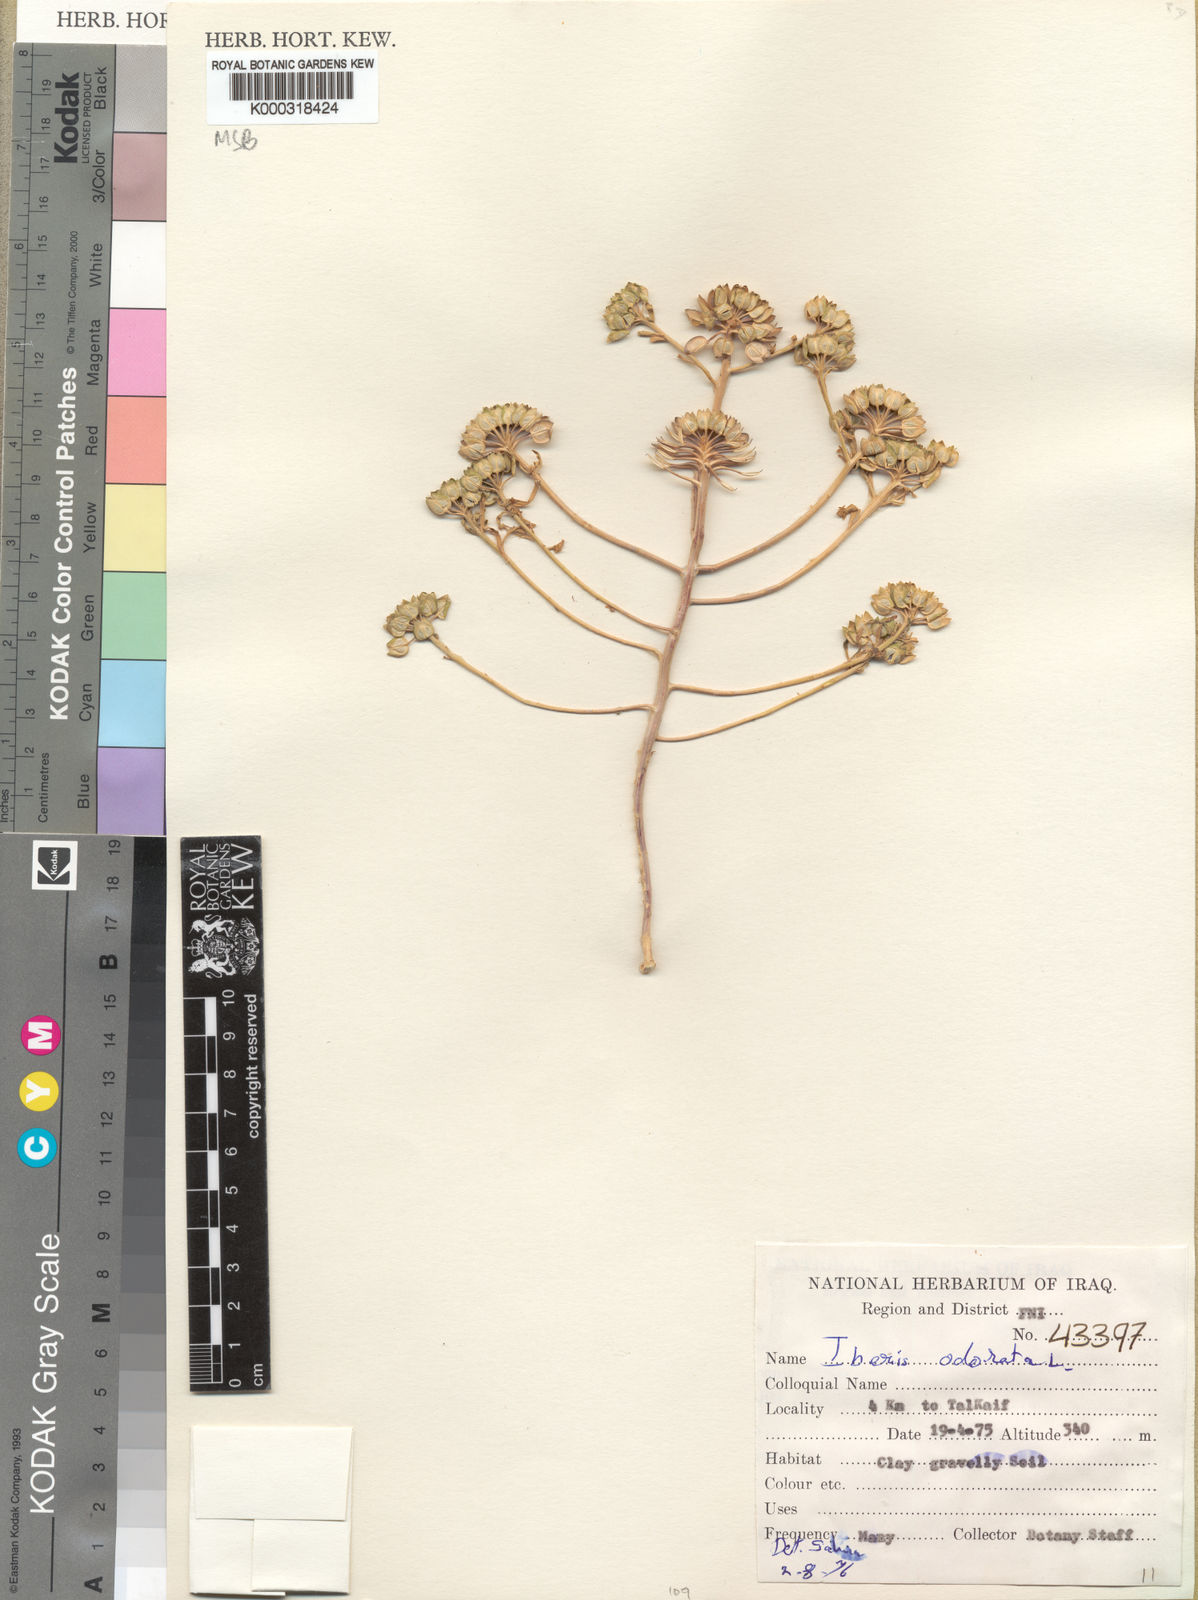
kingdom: Plantae
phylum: Tracheophyta
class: Magnoliopsida
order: Brassicales
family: Brassicaceae
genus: Iberis
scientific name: Iberis odorata
